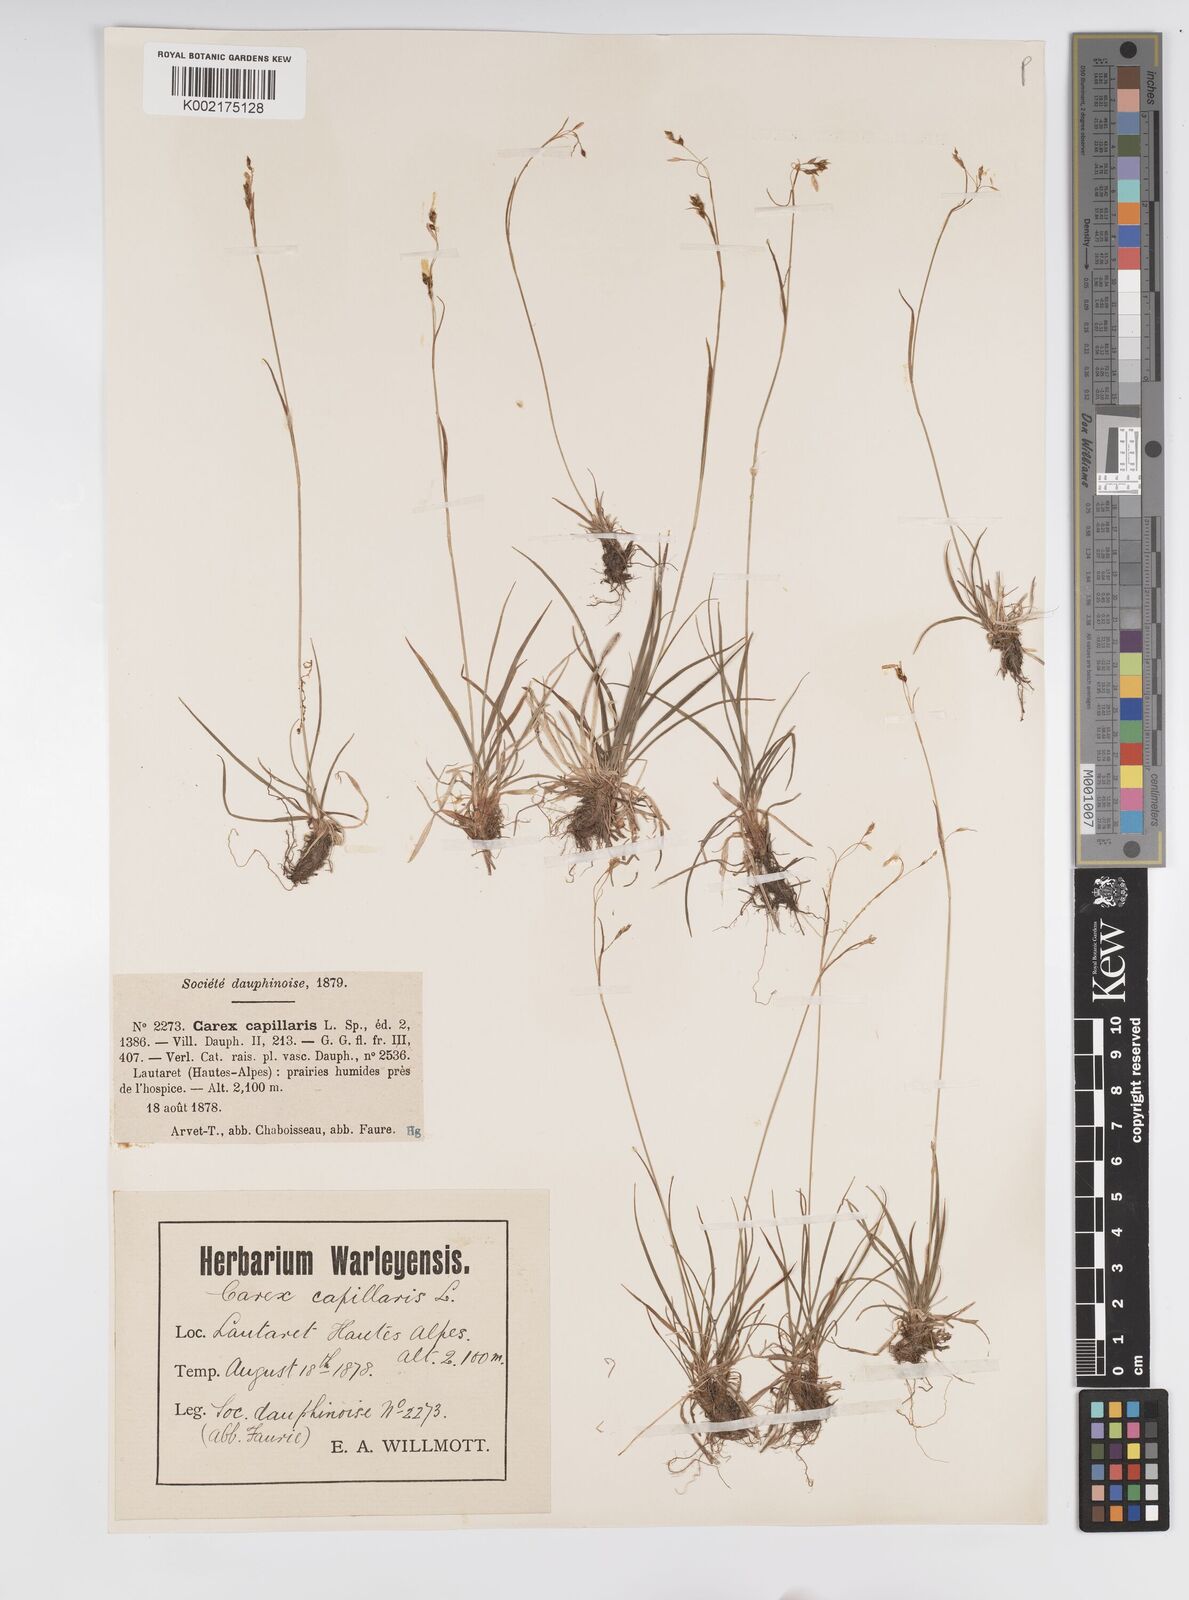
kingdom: Plantae
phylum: Tracheophyta
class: Liliopsida
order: Poales
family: Cyperaceae
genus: Carex
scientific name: Carex capillaris
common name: Hair sedge
